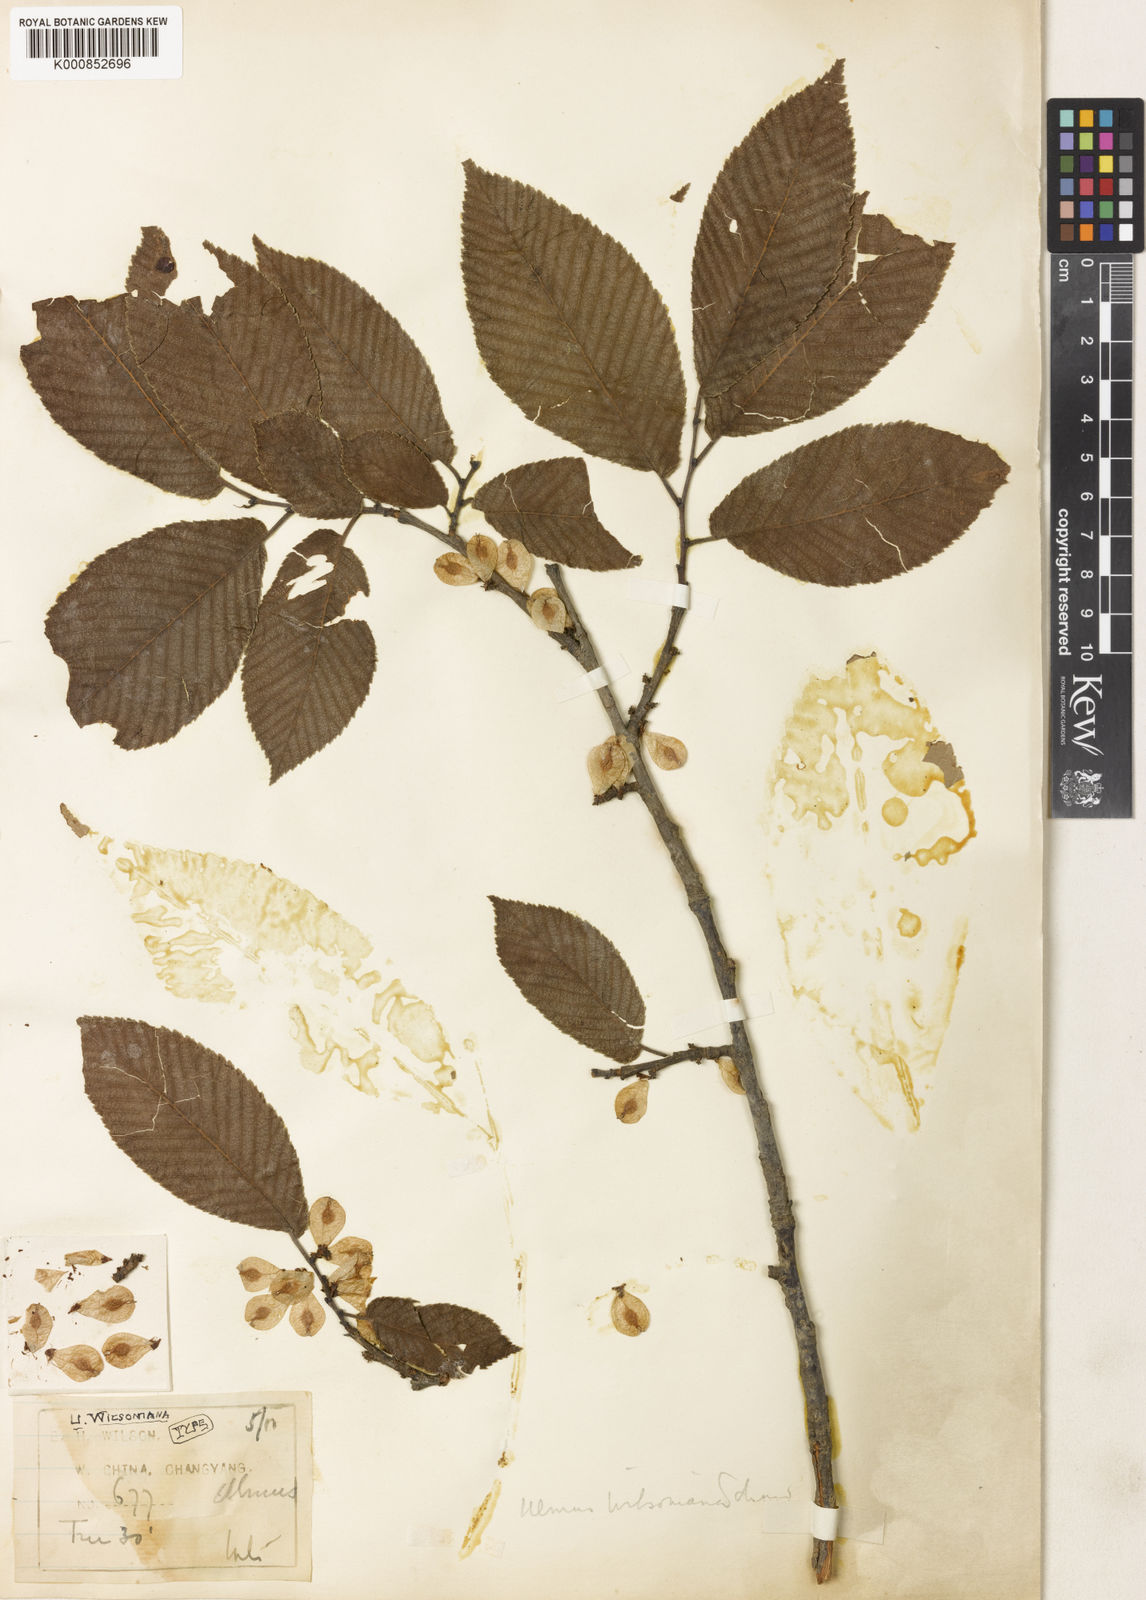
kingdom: Plantae
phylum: Tracheophyta
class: Magnoliopsida
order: Rosales
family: Ulmaceae
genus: Ulmus
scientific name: Ulmus davidiana
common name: Japanese elm
